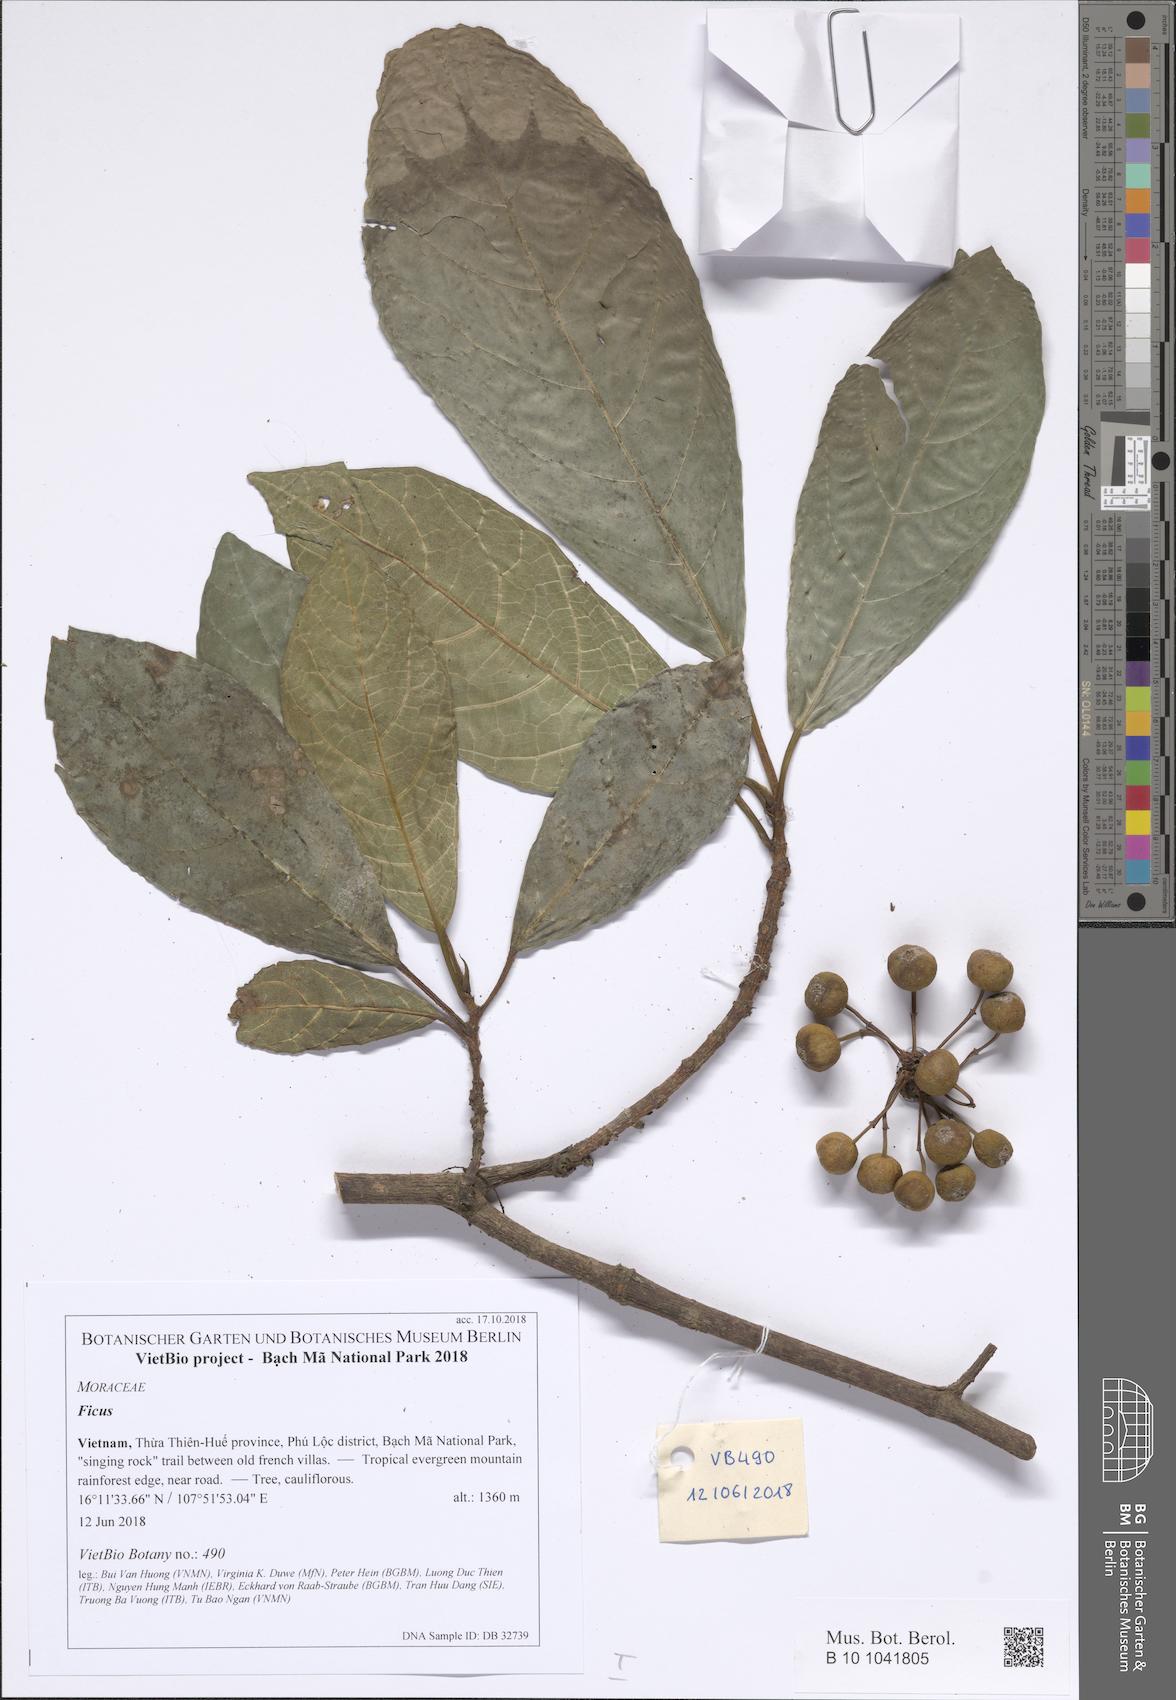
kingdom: Plantae
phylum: Tracheophyta
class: Magnoliopsida
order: Rosales
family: Moraceae
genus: Ficus
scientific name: Ficus
